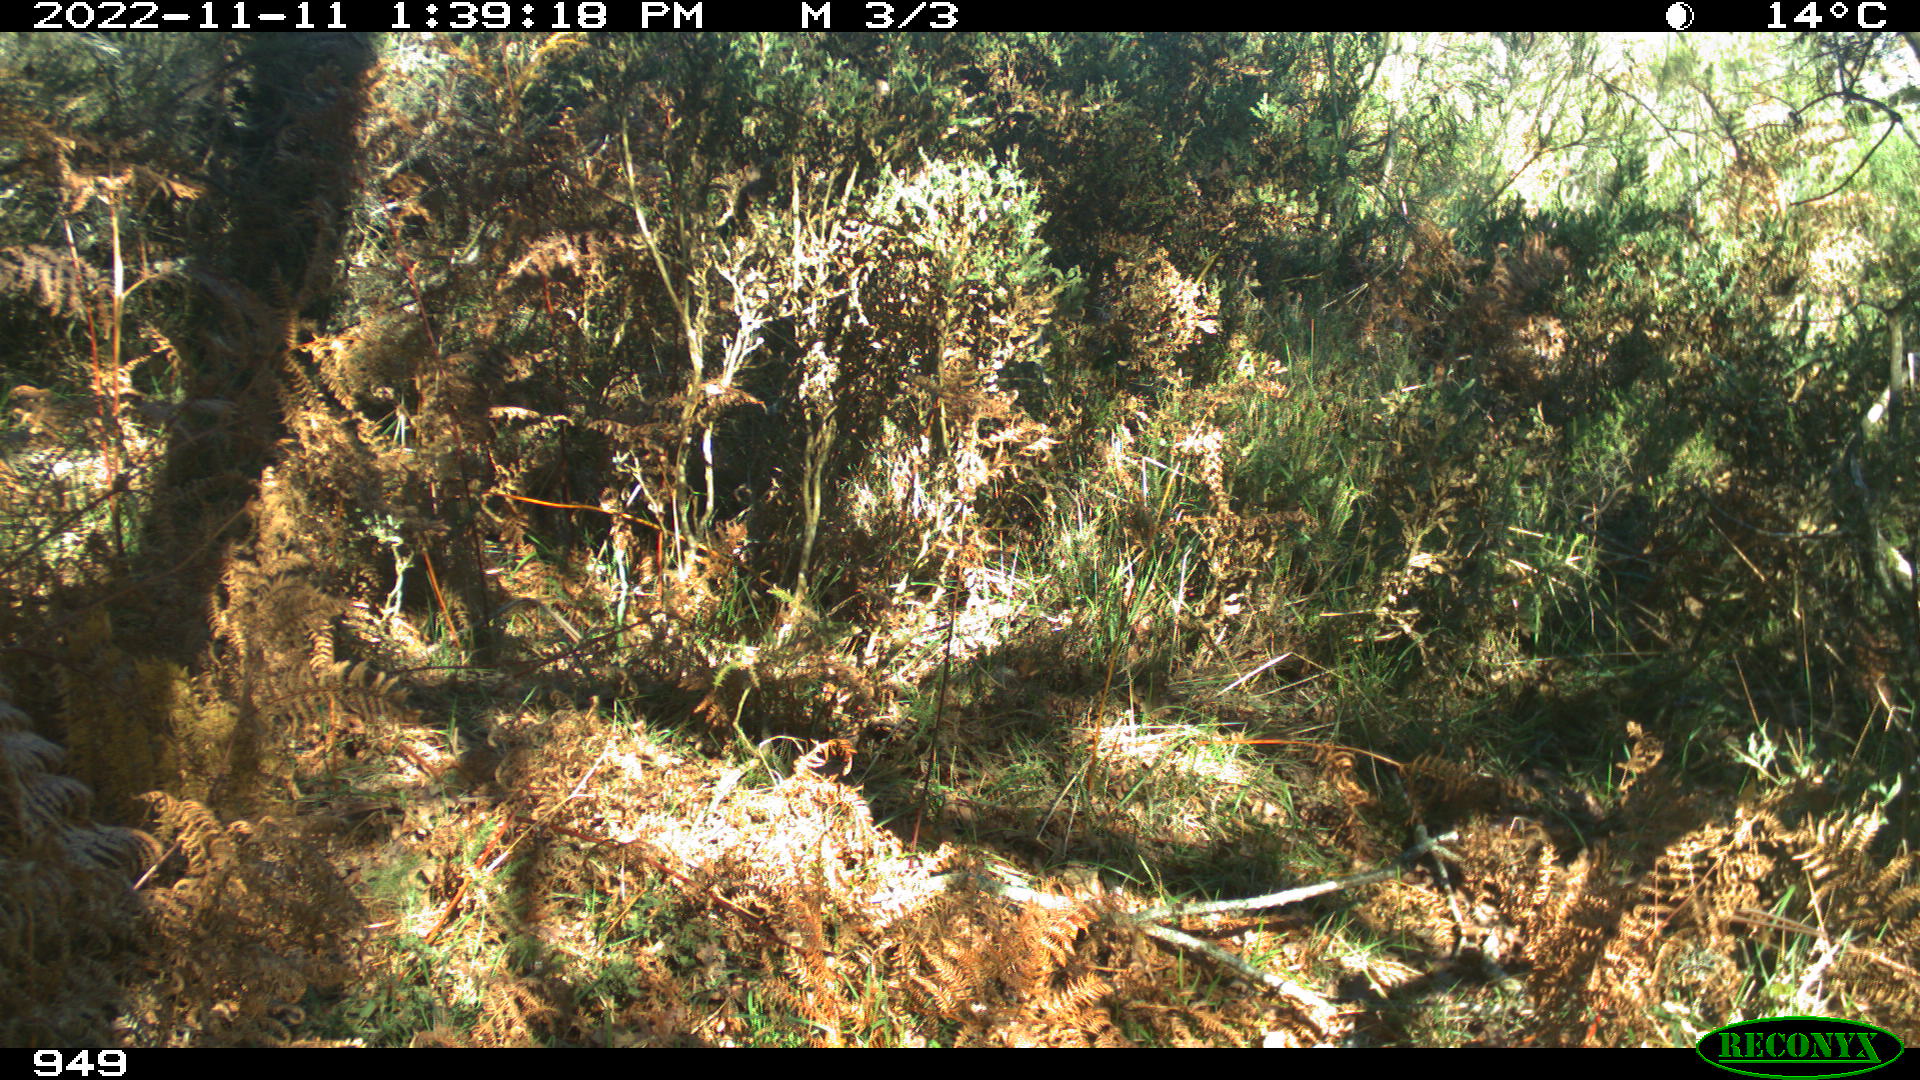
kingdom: Animalia
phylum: Chordata
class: Mammalia
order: Artiodactyla
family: Cervidae
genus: Capreolus
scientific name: Capreolus capreolus
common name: Western roe deer
